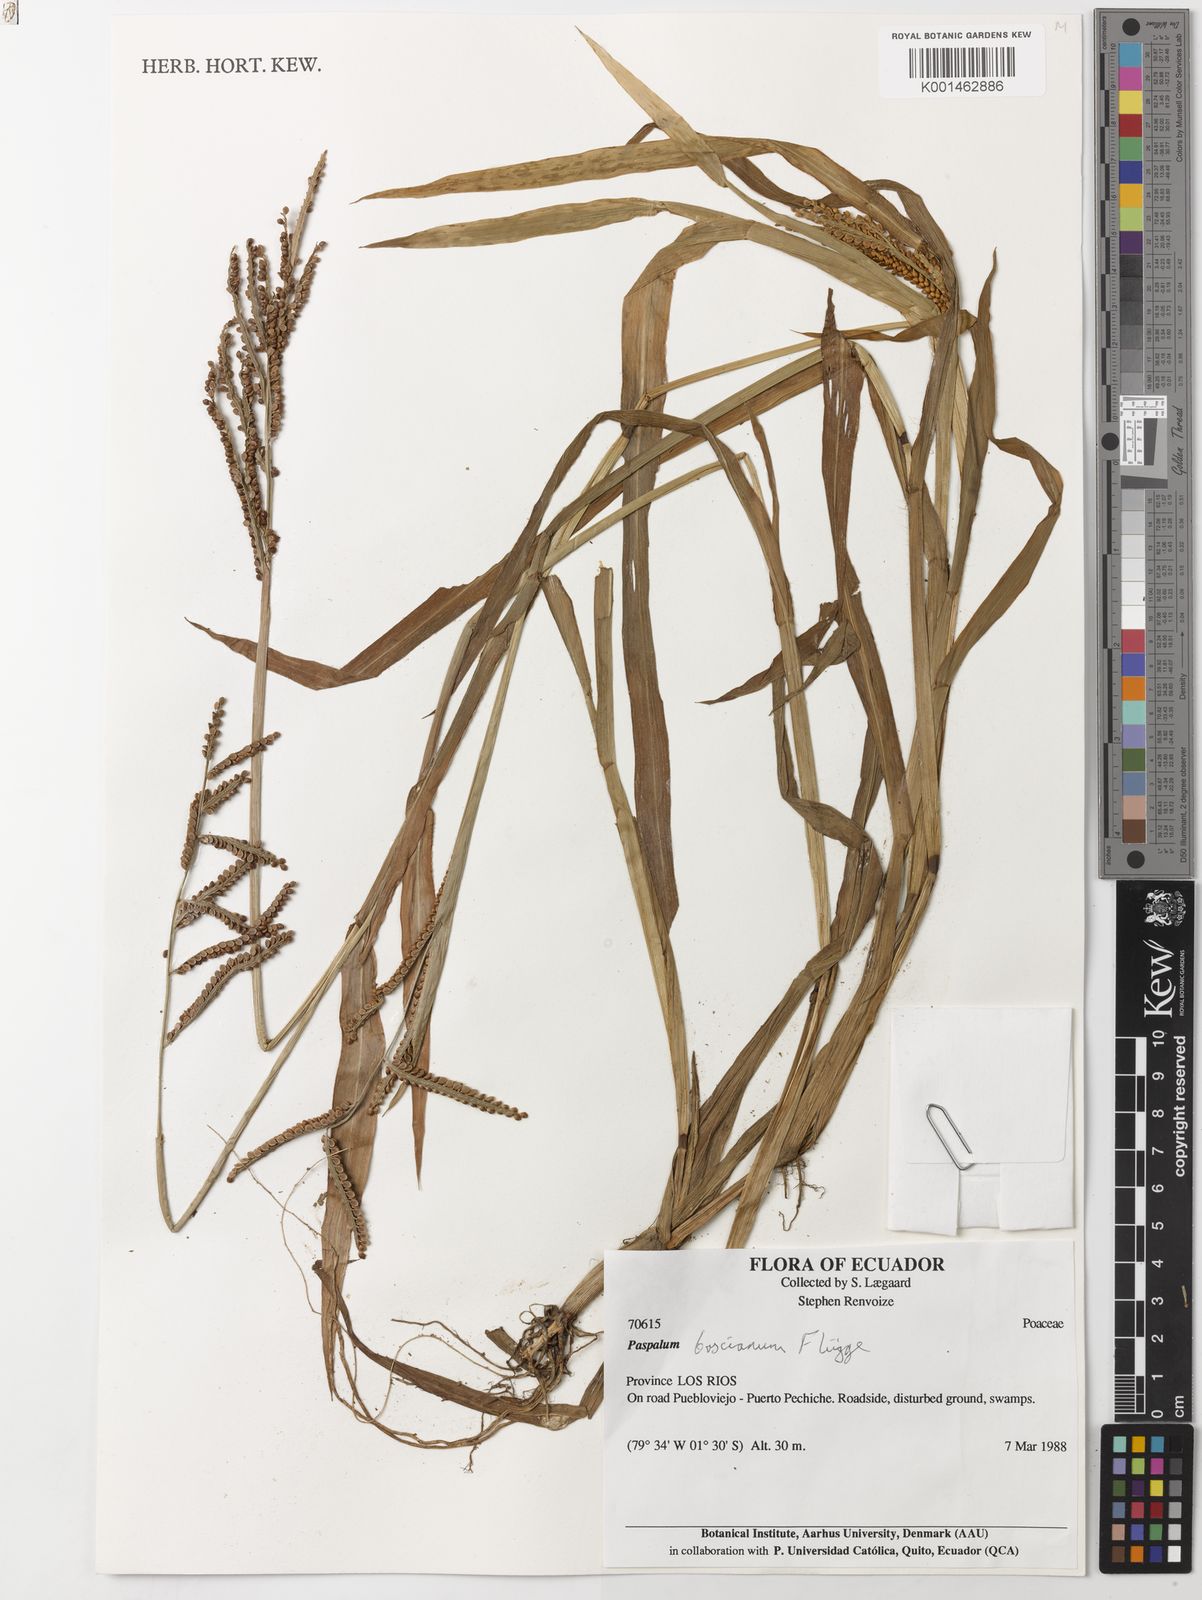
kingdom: Plantae
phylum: Tracheophyta
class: Liliopsida
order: Poales
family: Poaceae
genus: Paspalum
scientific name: Paspalum
